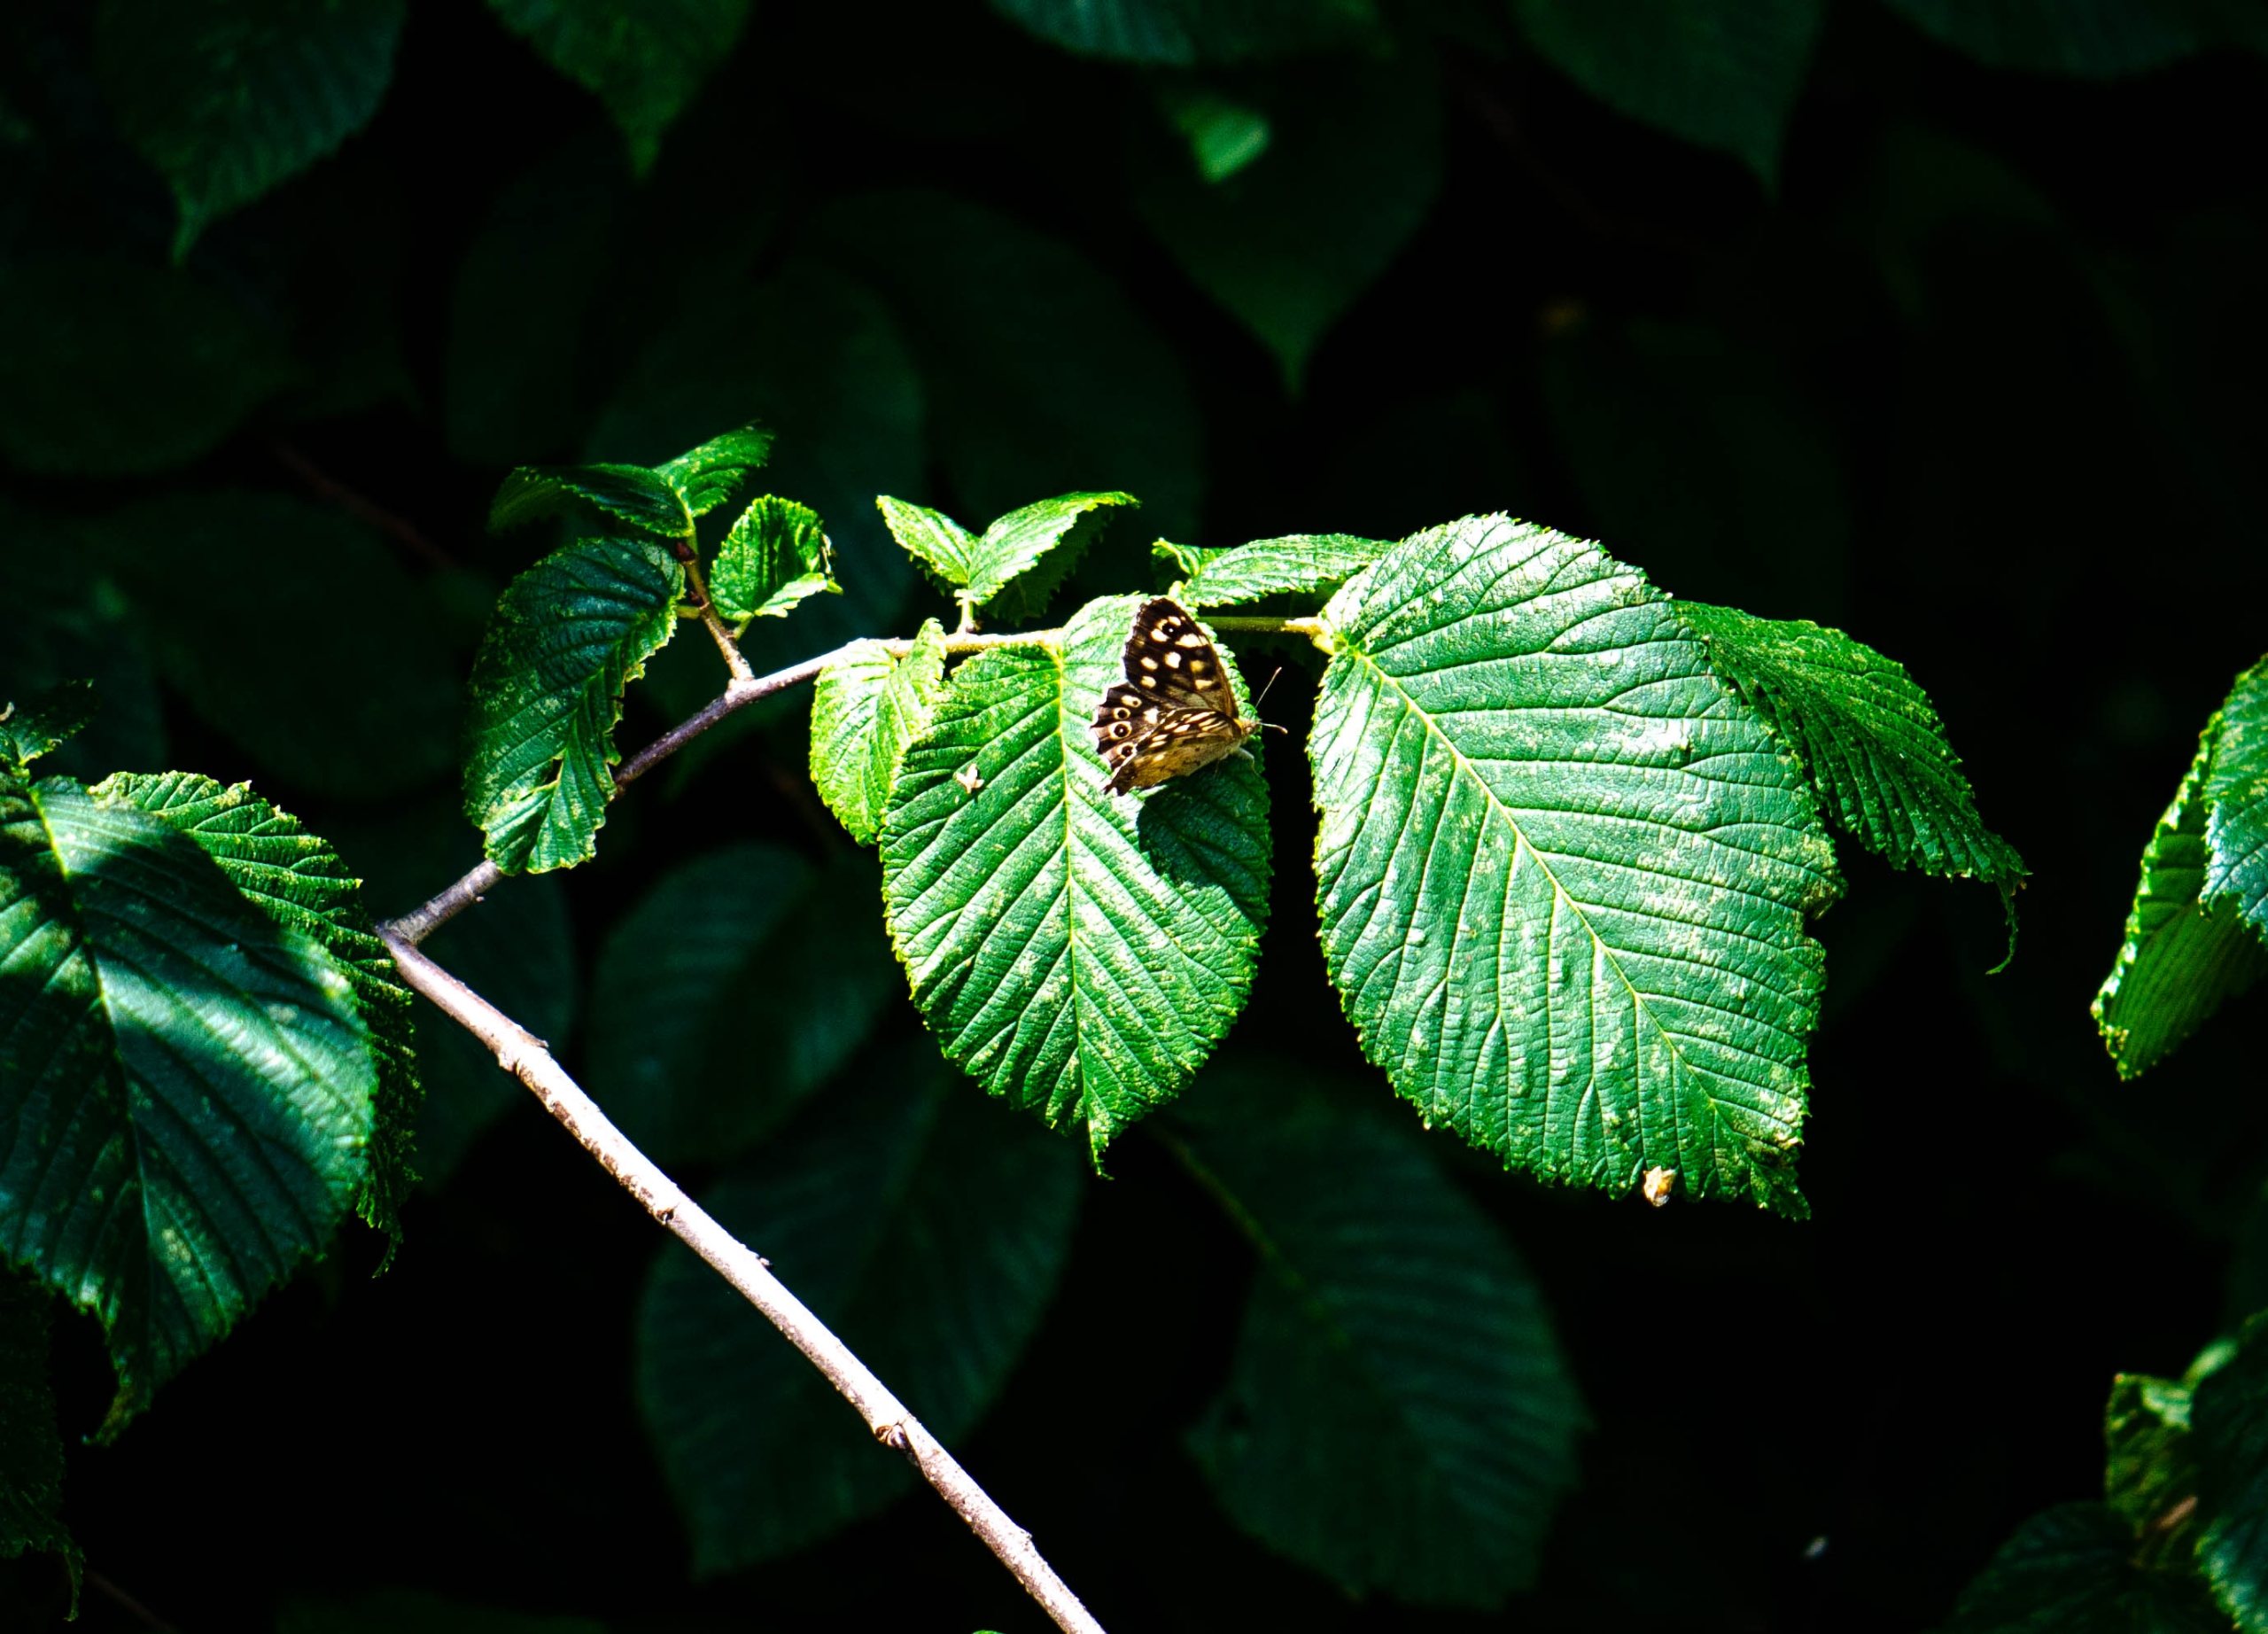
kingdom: Animalia
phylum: Arthropoda
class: Insecta
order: Lepidoptera
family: Nymphalidae
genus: Pararge
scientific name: Pararge aegeria
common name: Skovrandøje
